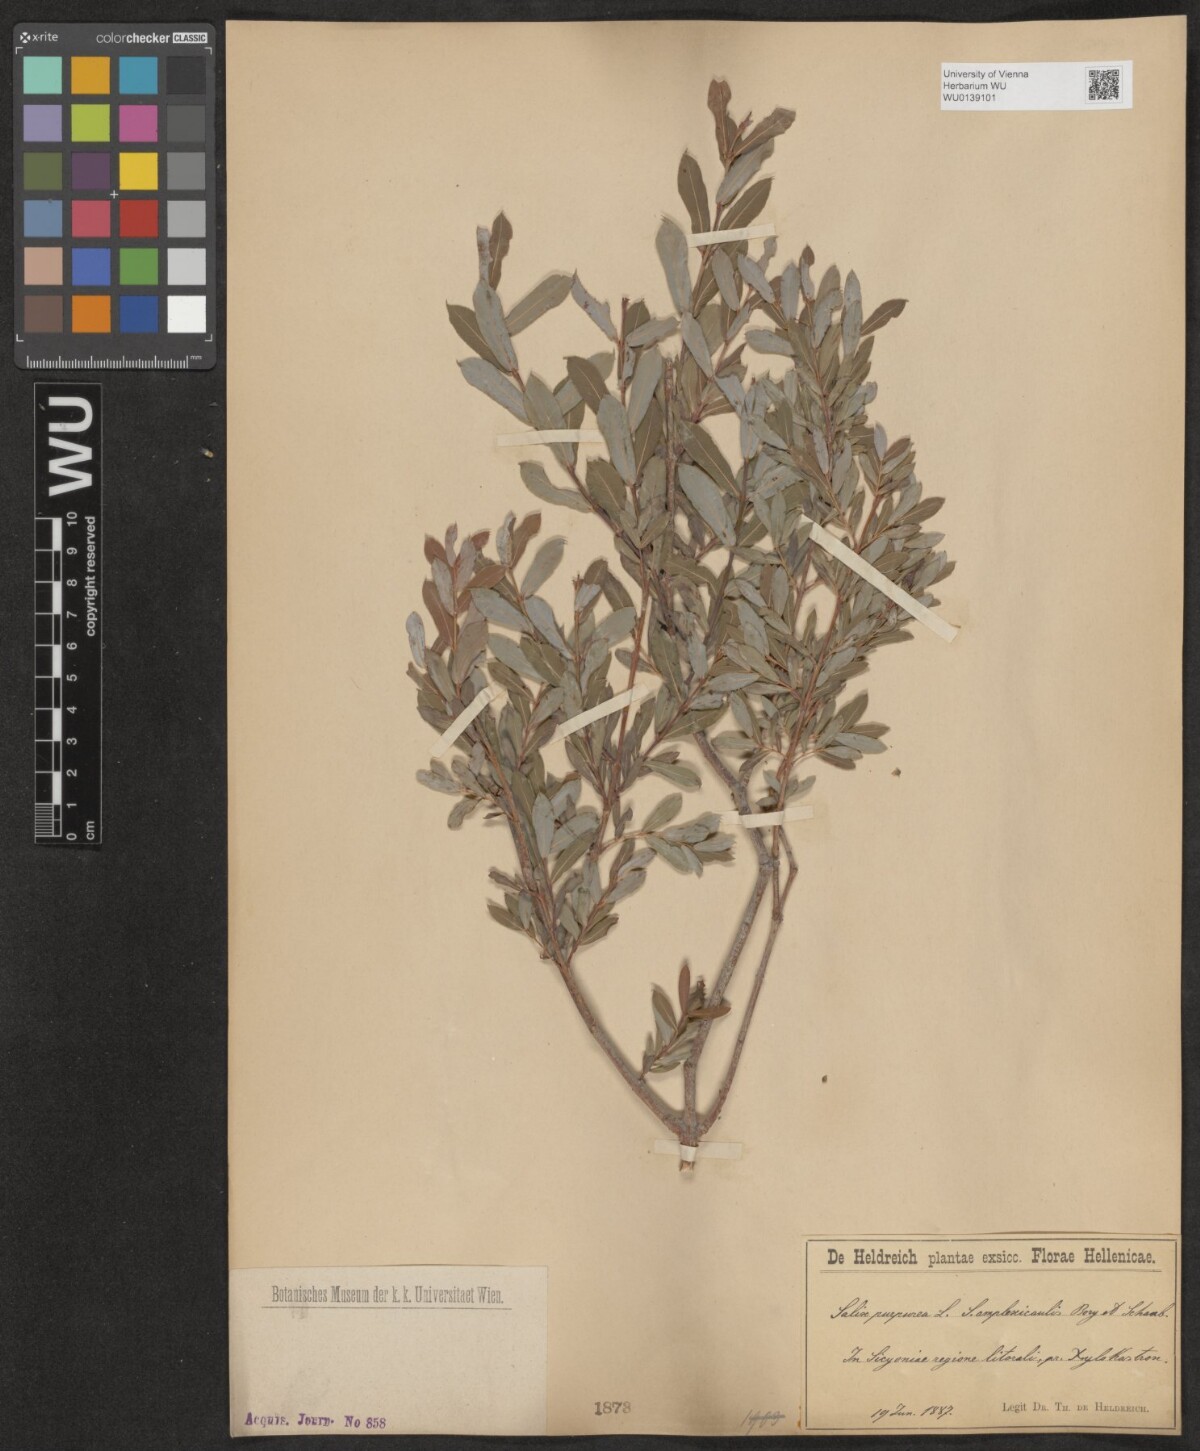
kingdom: Plantae
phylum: Tracheophyta
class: Magnoliopsida
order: Malpighiales
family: Salicaceae
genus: Salix
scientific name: Salix purpurea
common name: Purple willow
